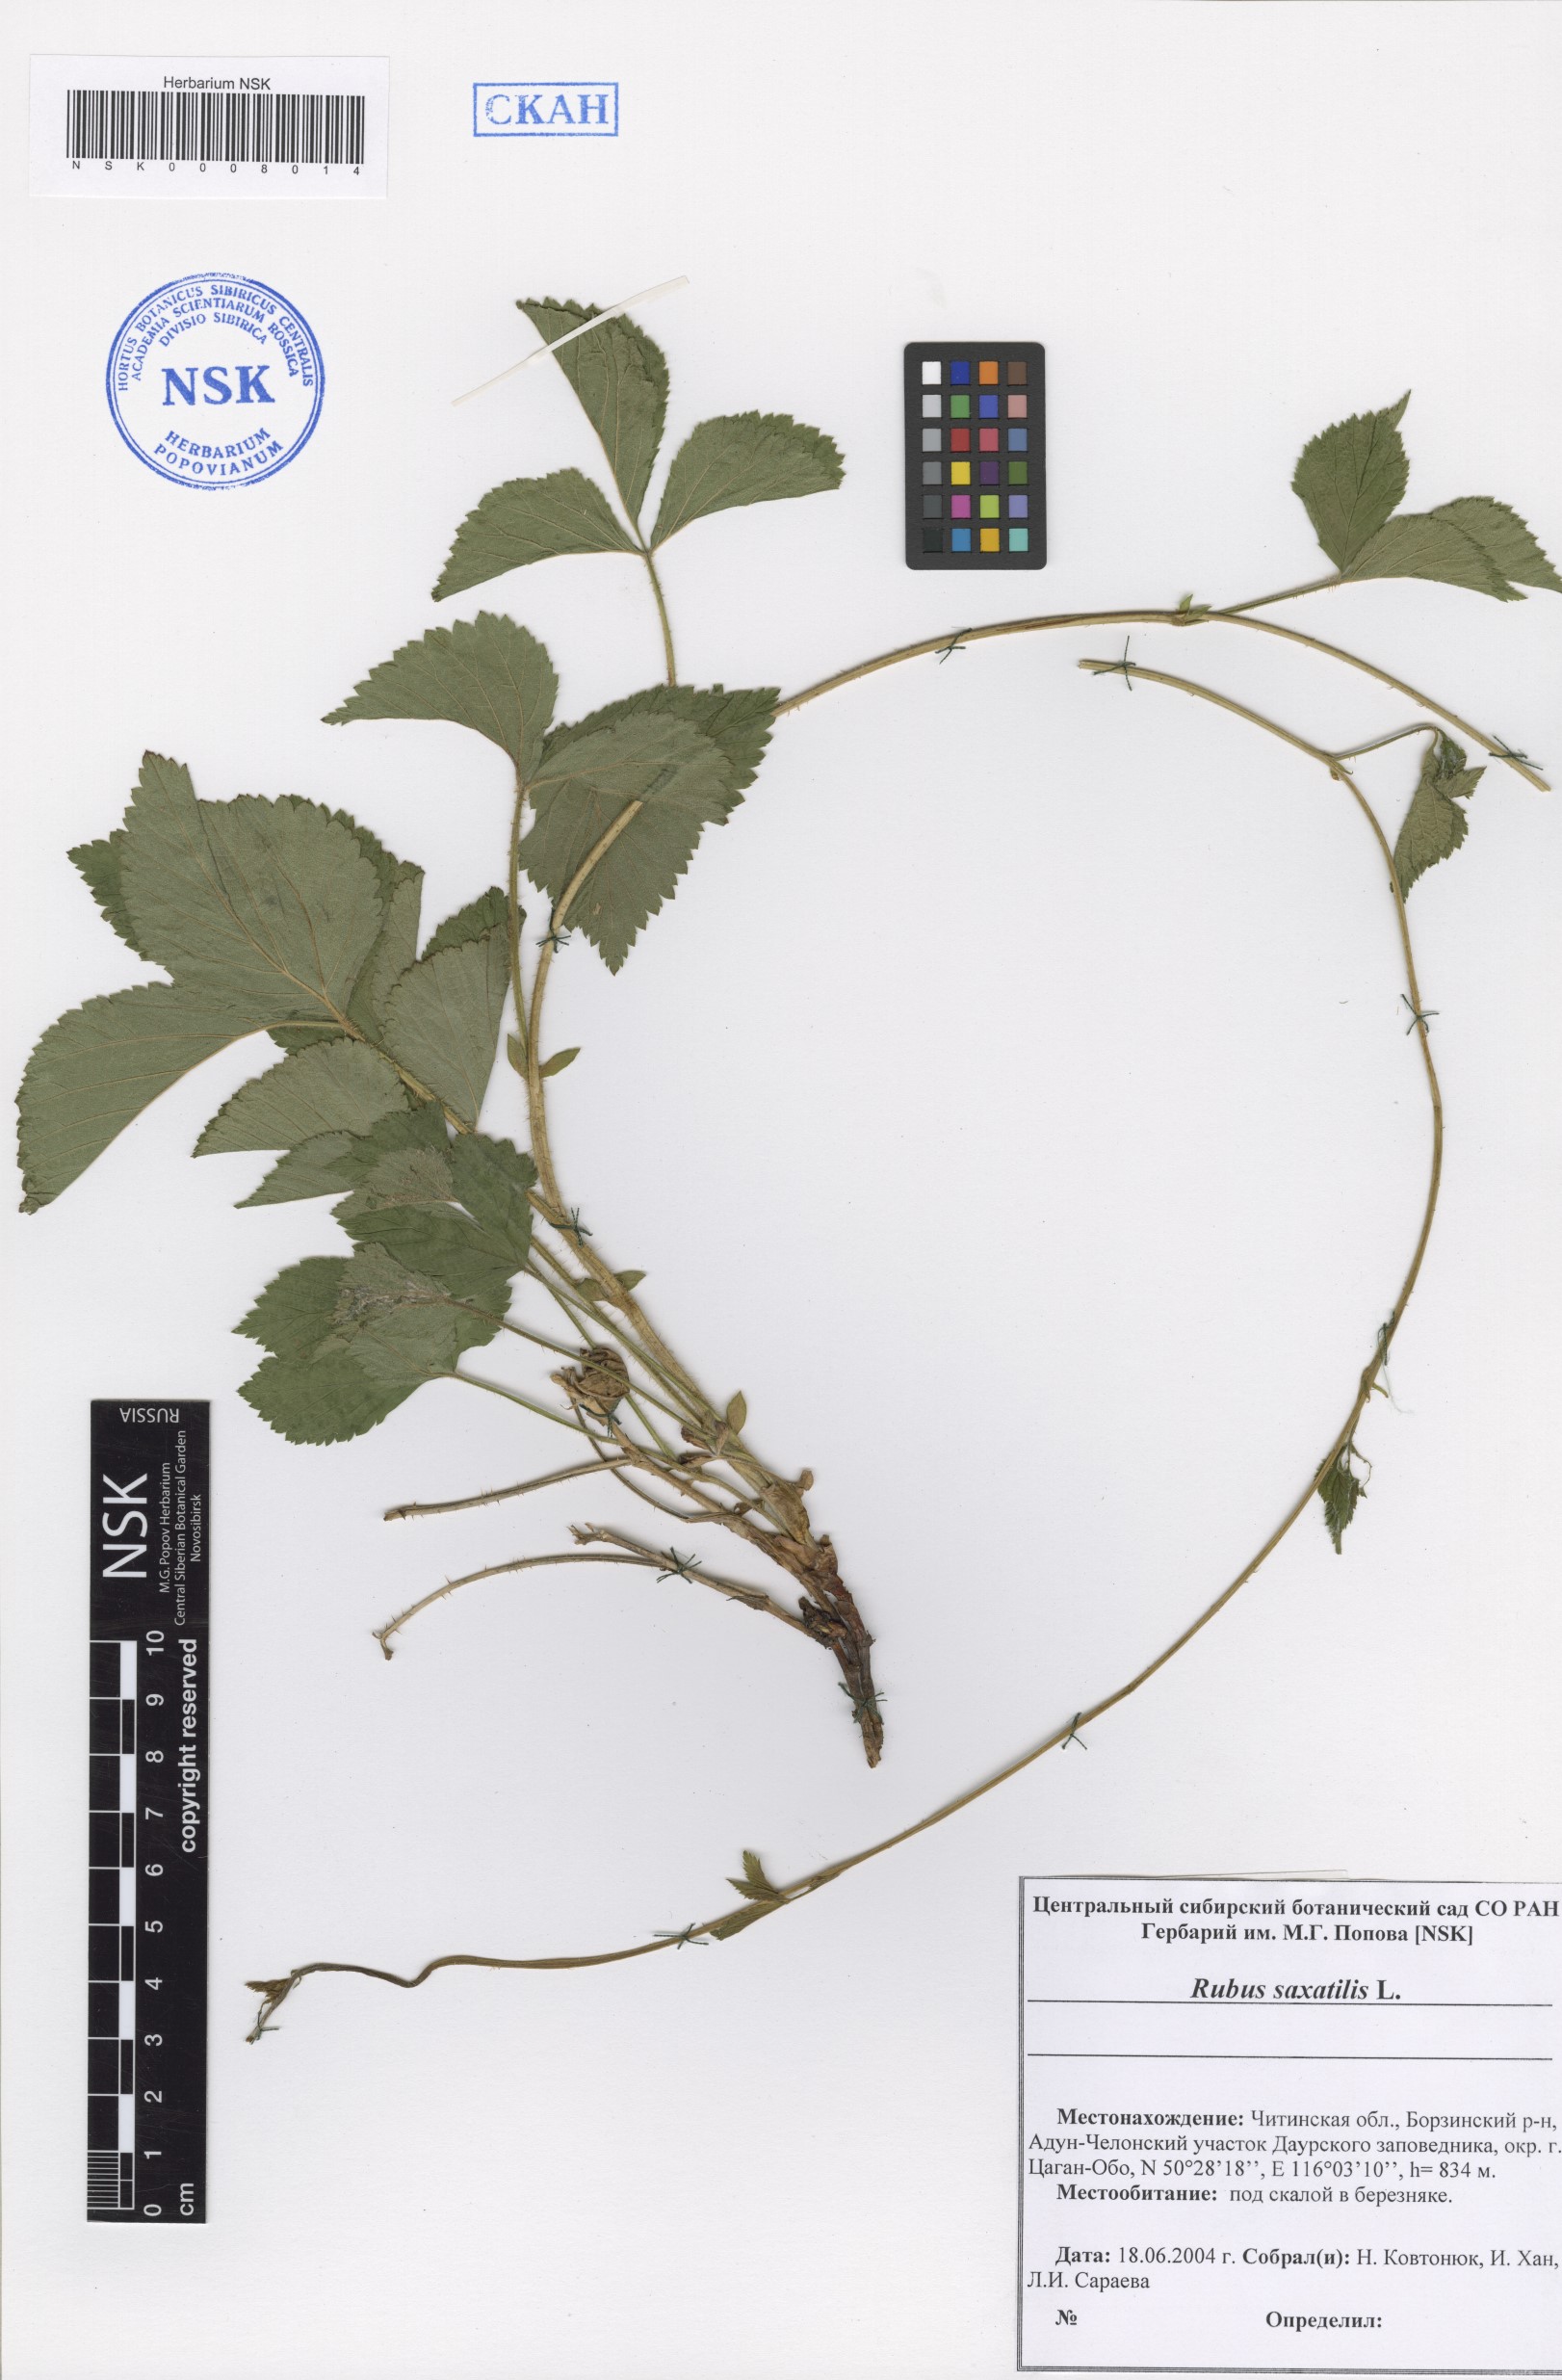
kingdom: Plantae
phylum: Tracheophyta
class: Magnoliopsida
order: Rosales
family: Rosaceae
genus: Rubus
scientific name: Rubus saxatilis
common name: Stone bramble
